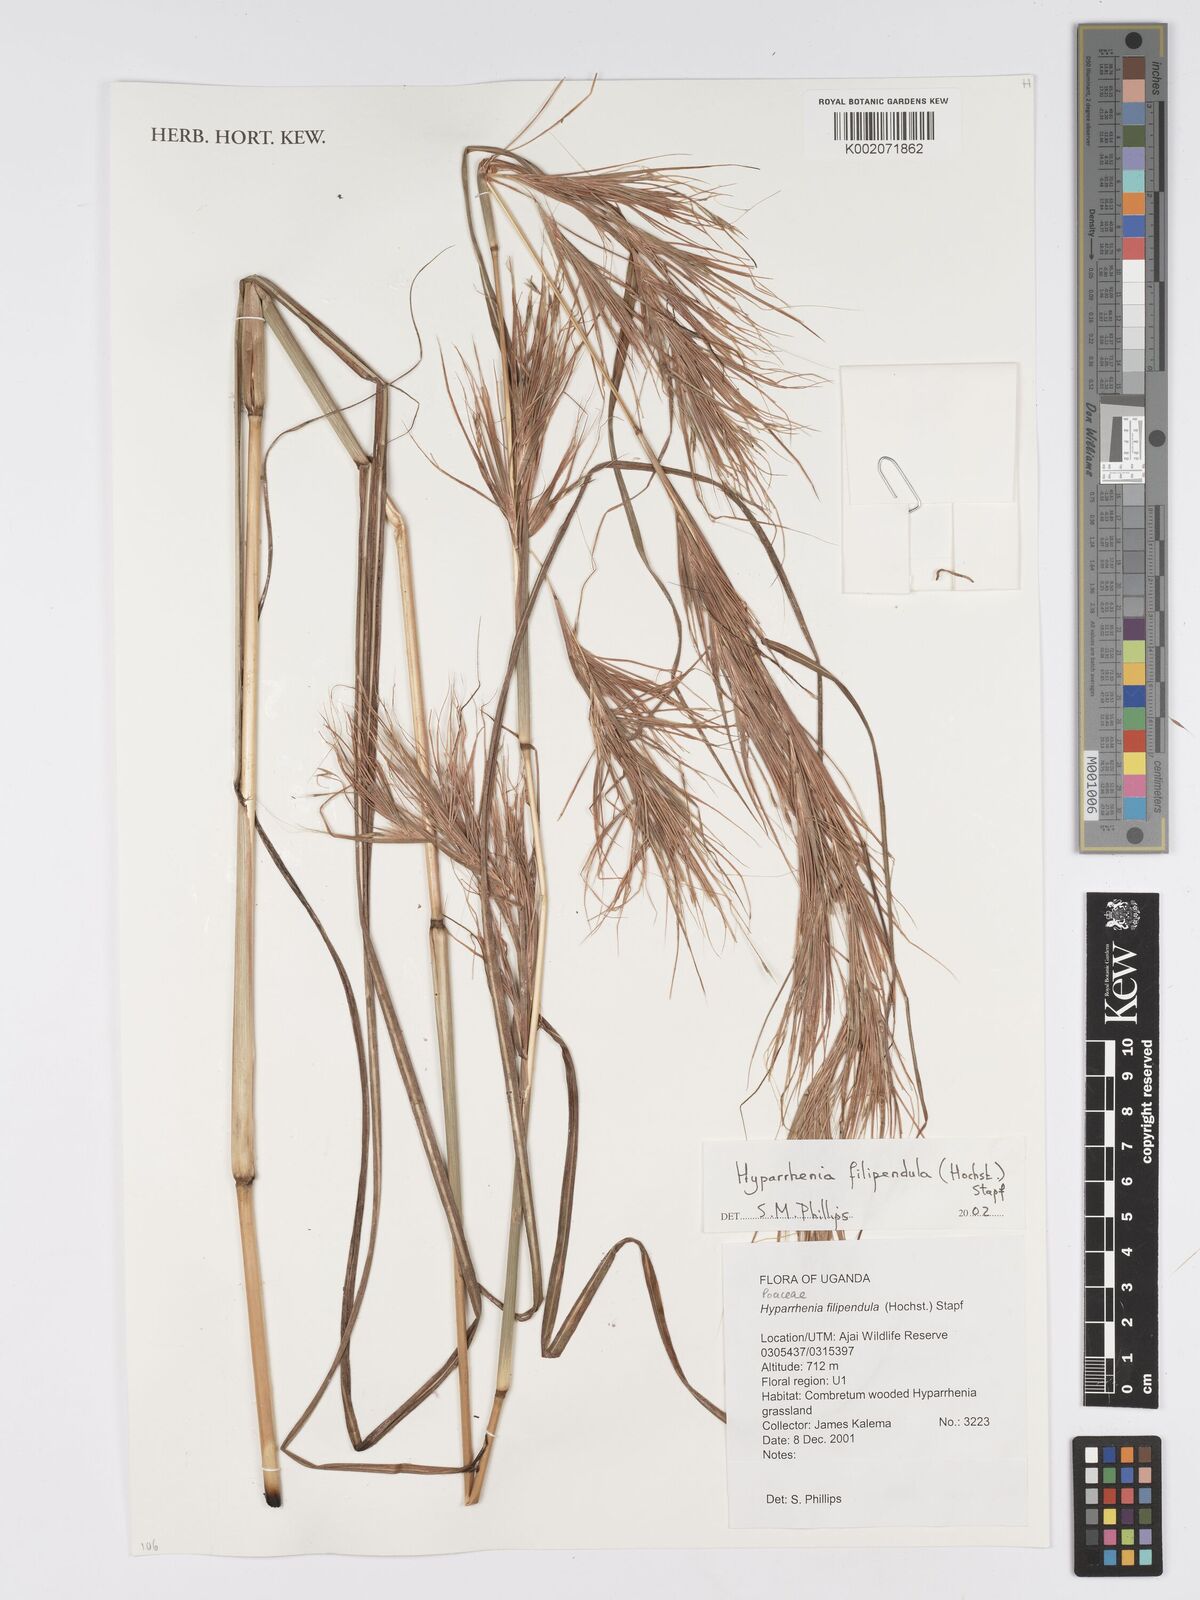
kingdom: Plantae
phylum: Tracheophyta
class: Liliopsida
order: Poales
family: Poaceae
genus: Hyparrhenia
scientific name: Hyparrhenia filipendula
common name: Tambookie grass
